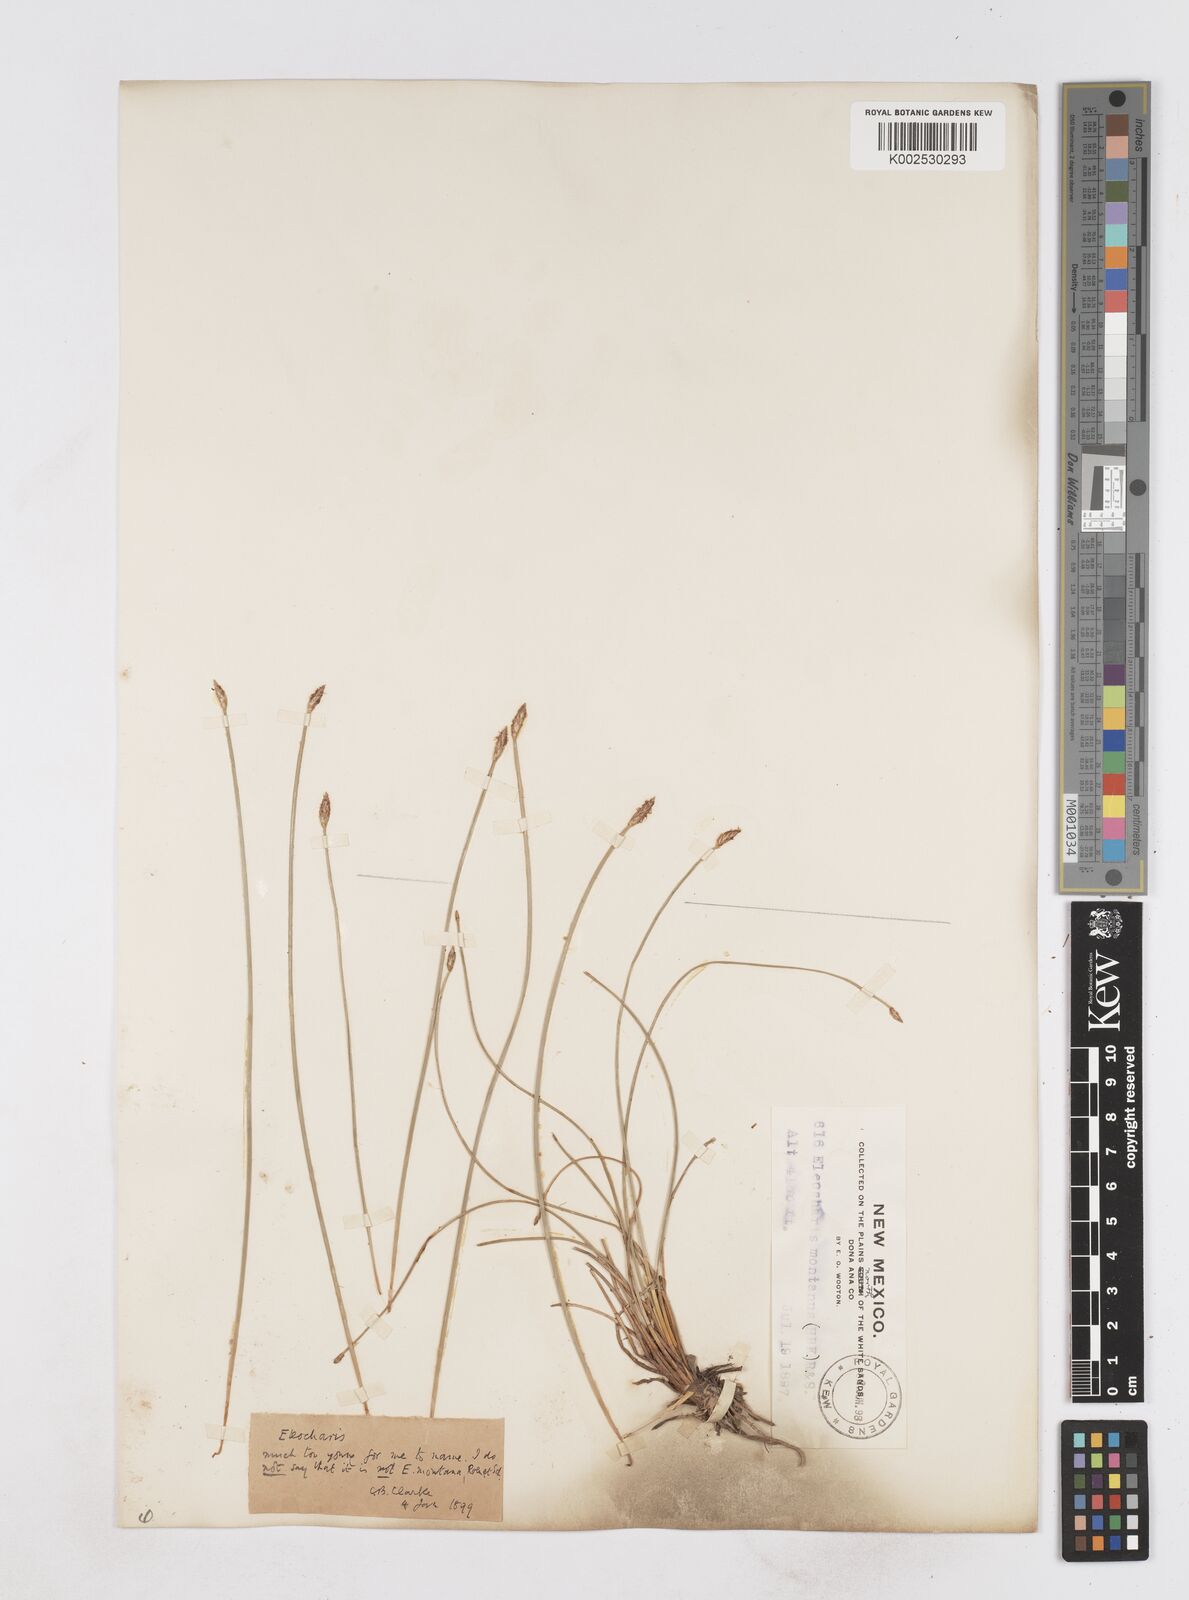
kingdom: Plantae
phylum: Tracheophyta
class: Liliopsida
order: Poales
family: Cyperaceae
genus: Eleocharis
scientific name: Eleocharis montana
